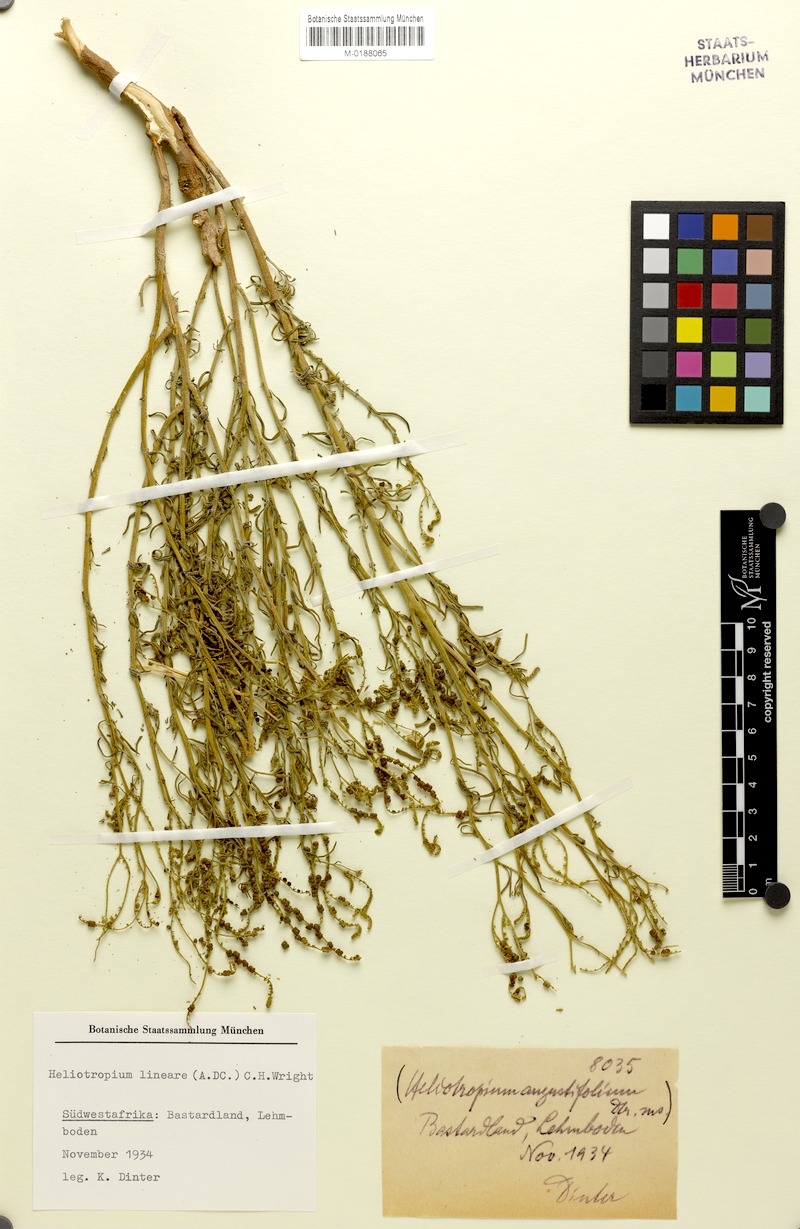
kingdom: Plantae
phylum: Tracheophyta
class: Magnoliopsida
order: Boraginales
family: Heliotropiaceae
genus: Heliotropium
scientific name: Heliotropium lineare
